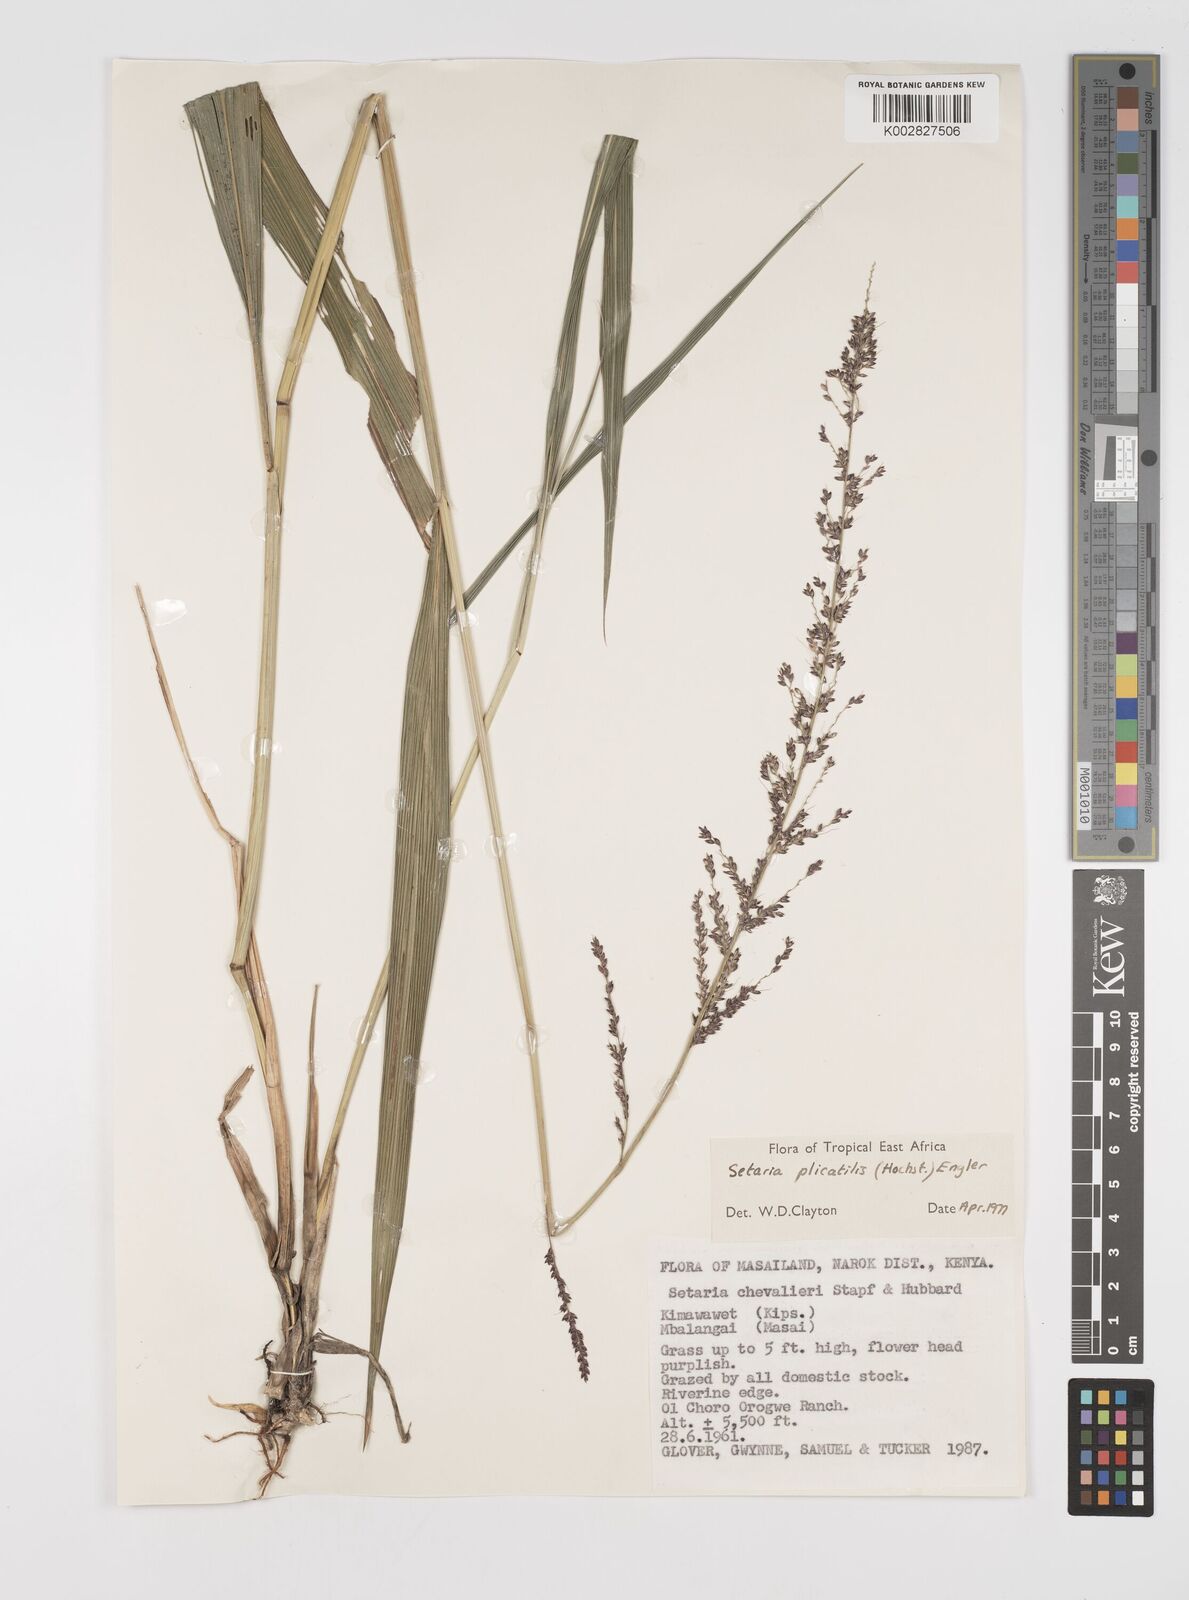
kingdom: Plantae
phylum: Tracheophyta
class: Liliopsida
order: Poales
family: Poaceae
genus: Setaria
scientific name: Setaria megaphylla
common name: Bigleaf bristlegrass
